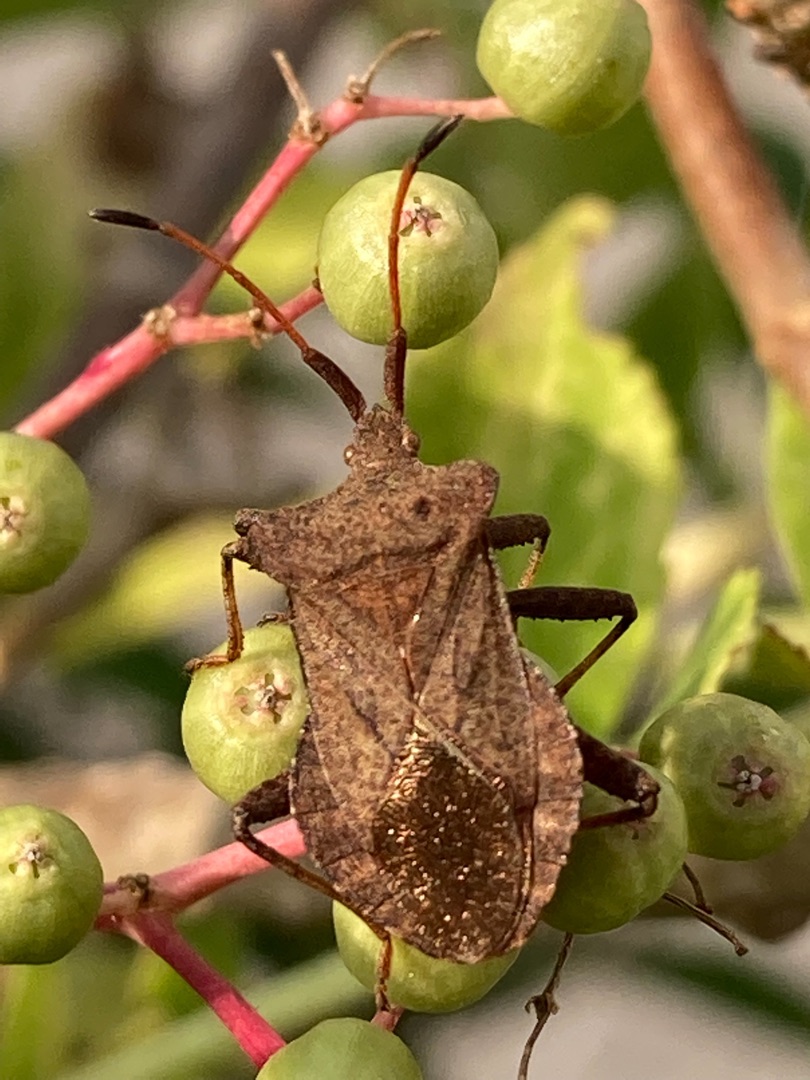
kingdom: Animalia
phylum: Arthropoda
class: Insecta
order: Hemiptera
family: Coreidae
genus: Coreus
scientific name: Coreus marginatus
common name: Skræppetæge
